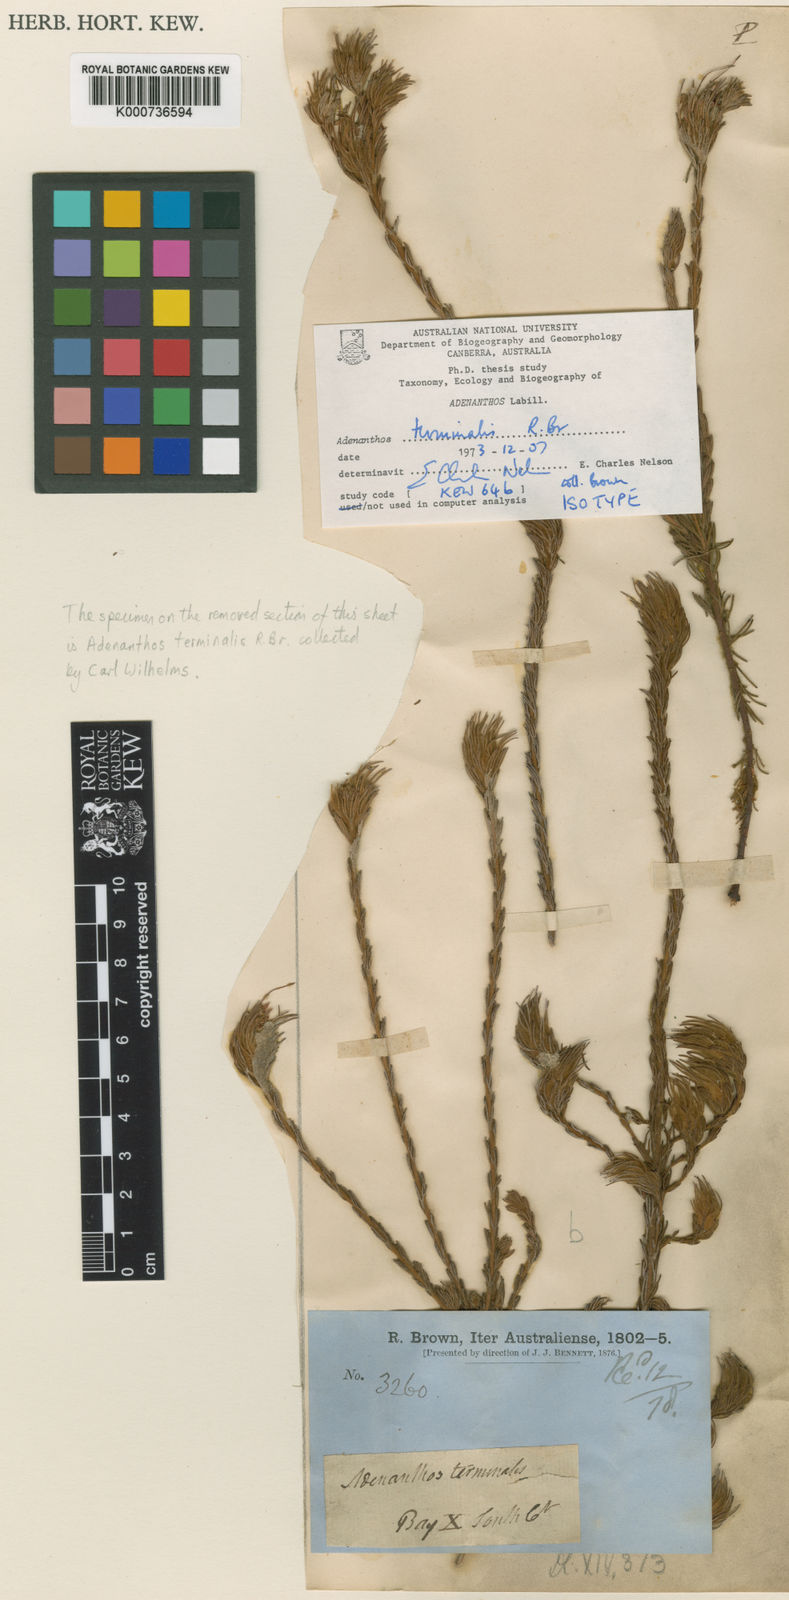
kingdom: Plantae
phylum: Tracheophyta
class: Magnoliopsida
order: Proteales
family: Proteaceae
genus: Adenanthos
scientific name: Adenanthos terminalis
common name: Yellow gland-flower
